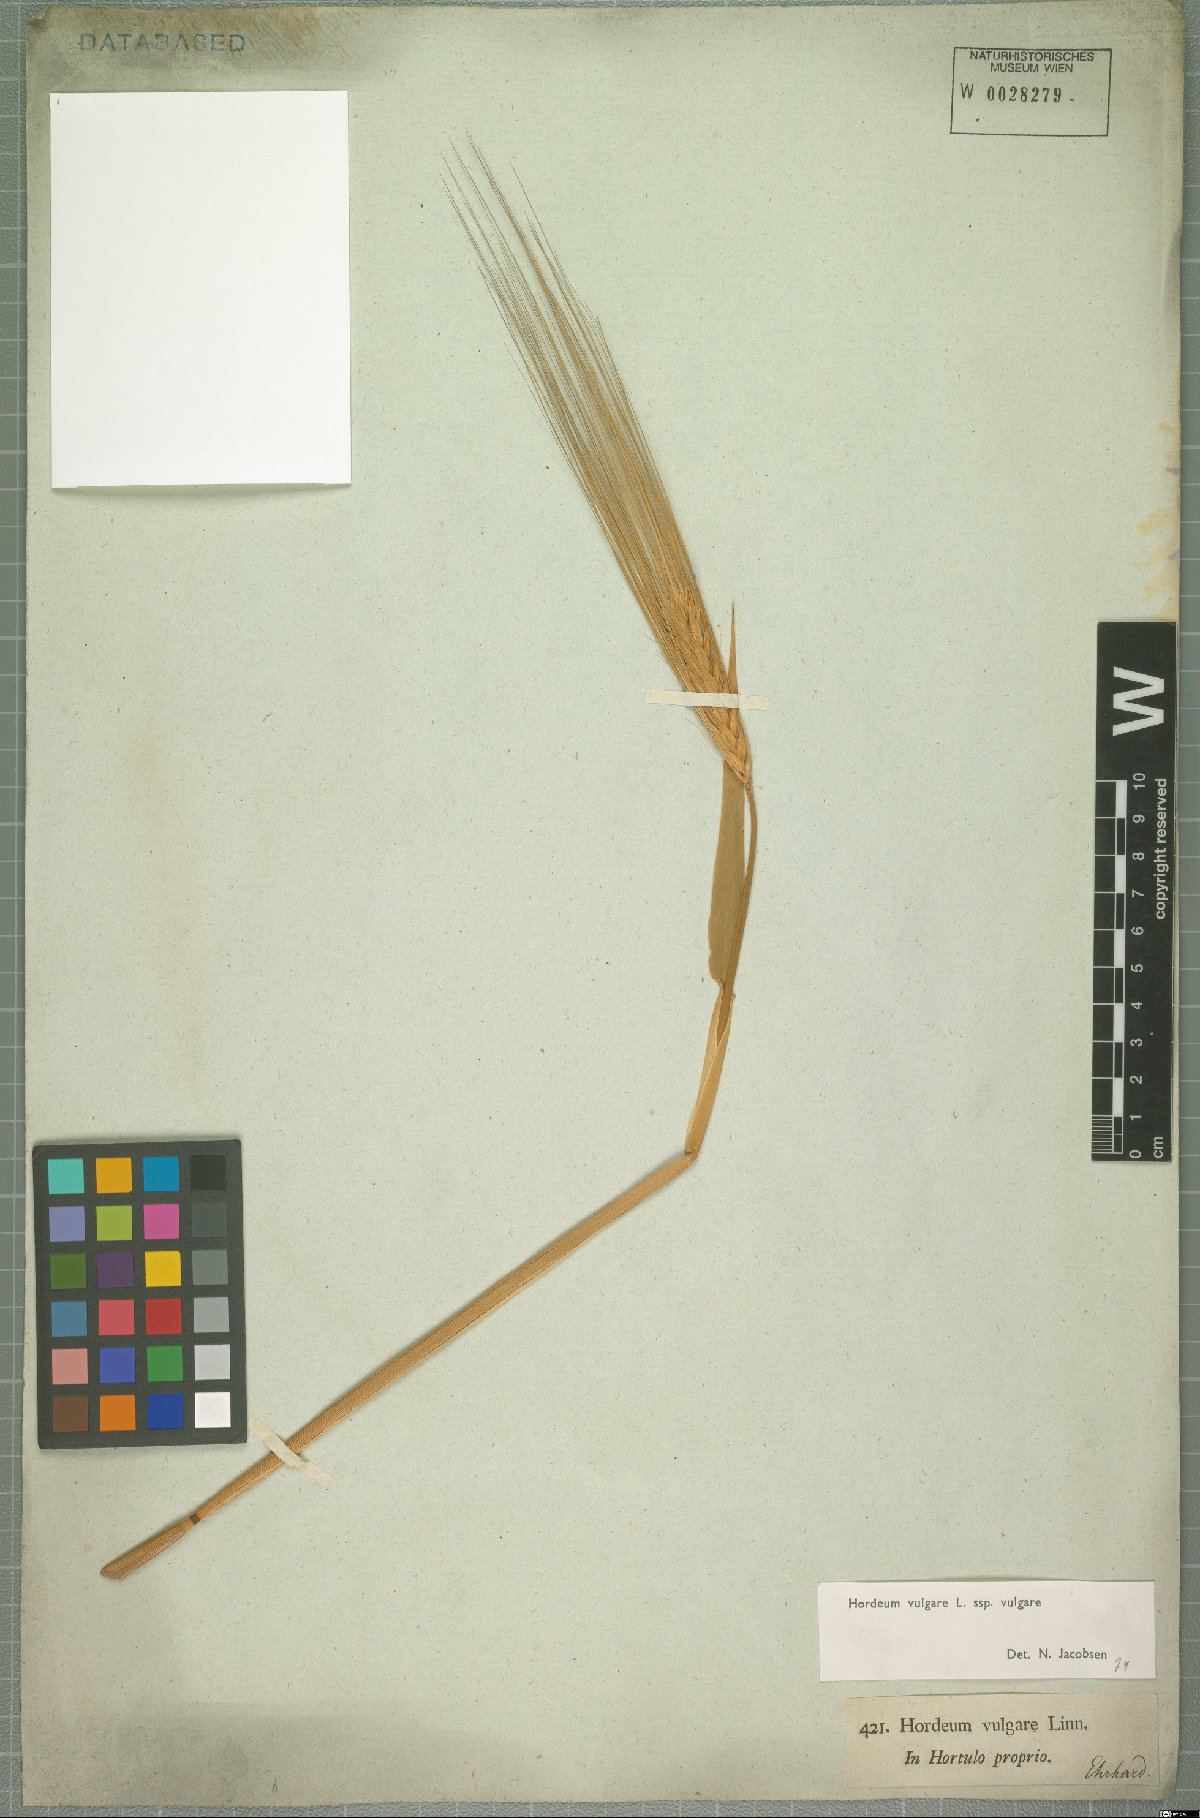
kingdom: Plantae
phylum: Tracheophyta
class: Liliopsida
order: Poales
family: Poaceae
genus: Hordeum
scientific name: Hordeum vulgare
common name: Common barley
